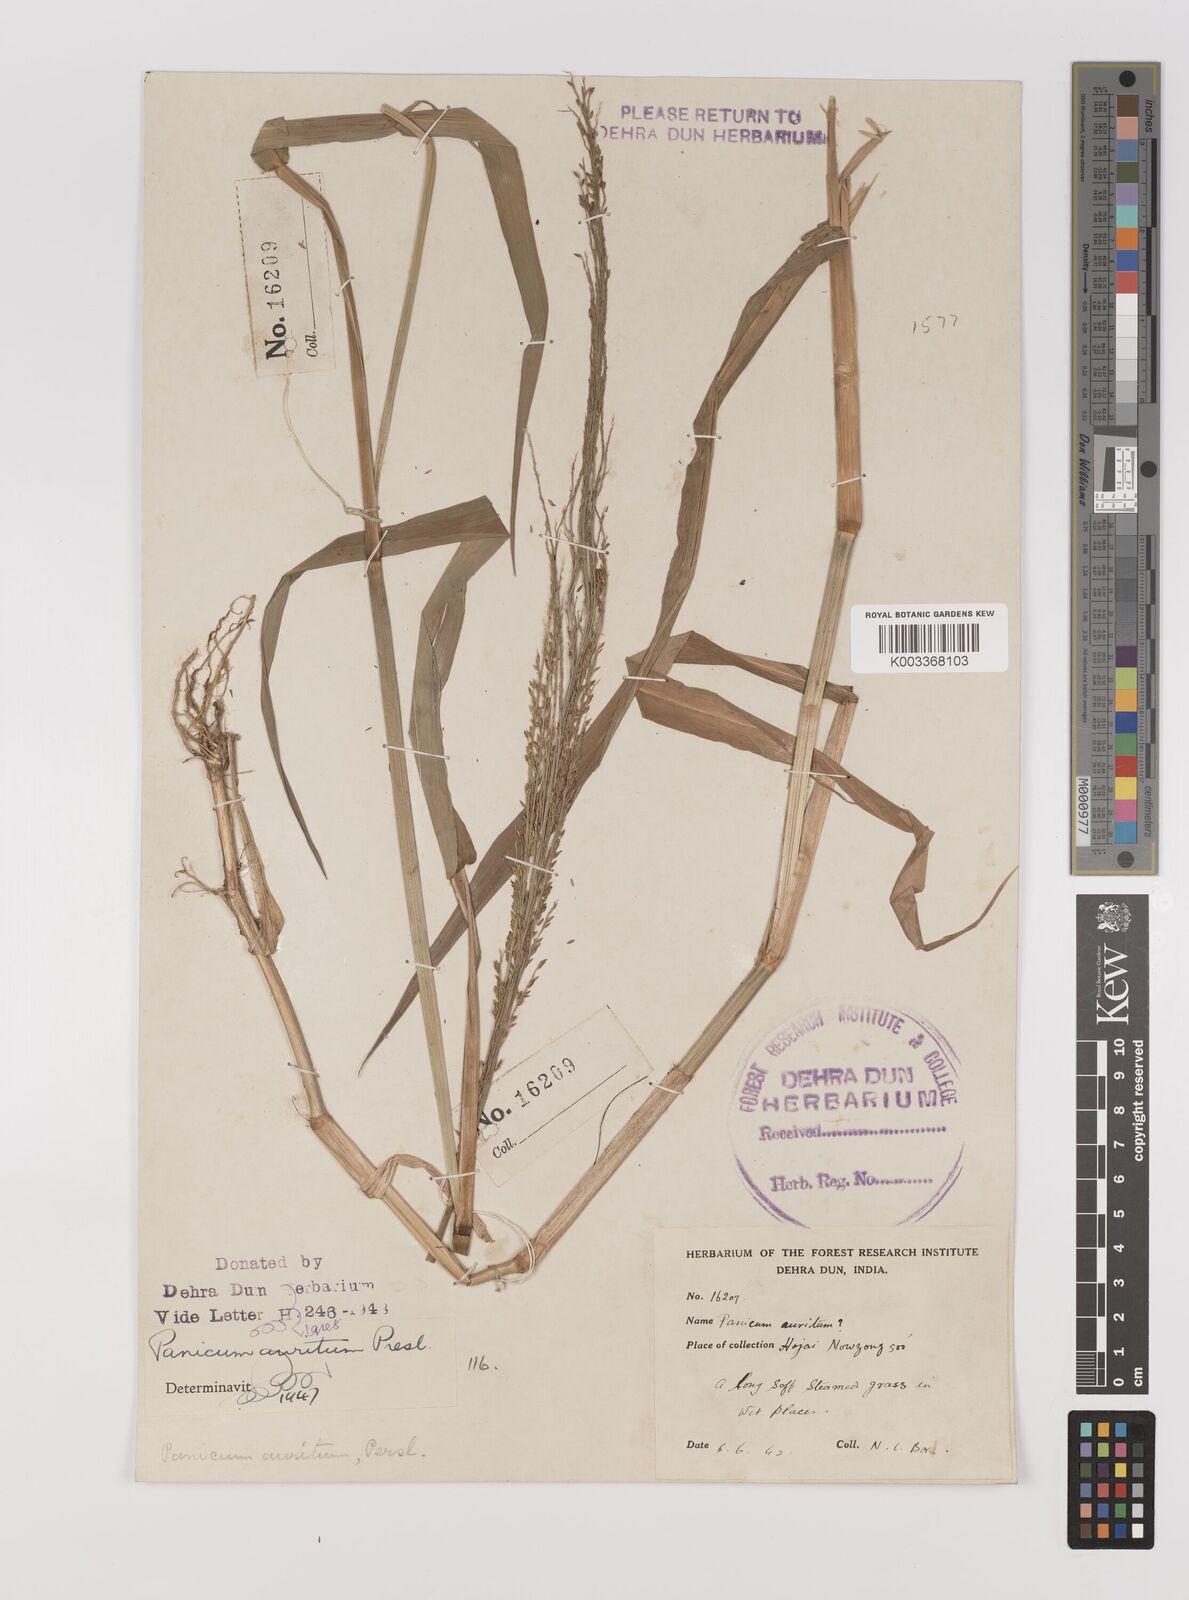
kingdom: Plantae
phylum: Tracheophyta
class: Liliopsida
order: Poales
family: Poaceae
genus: Hymenachne
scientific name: Hymenachne aurita
